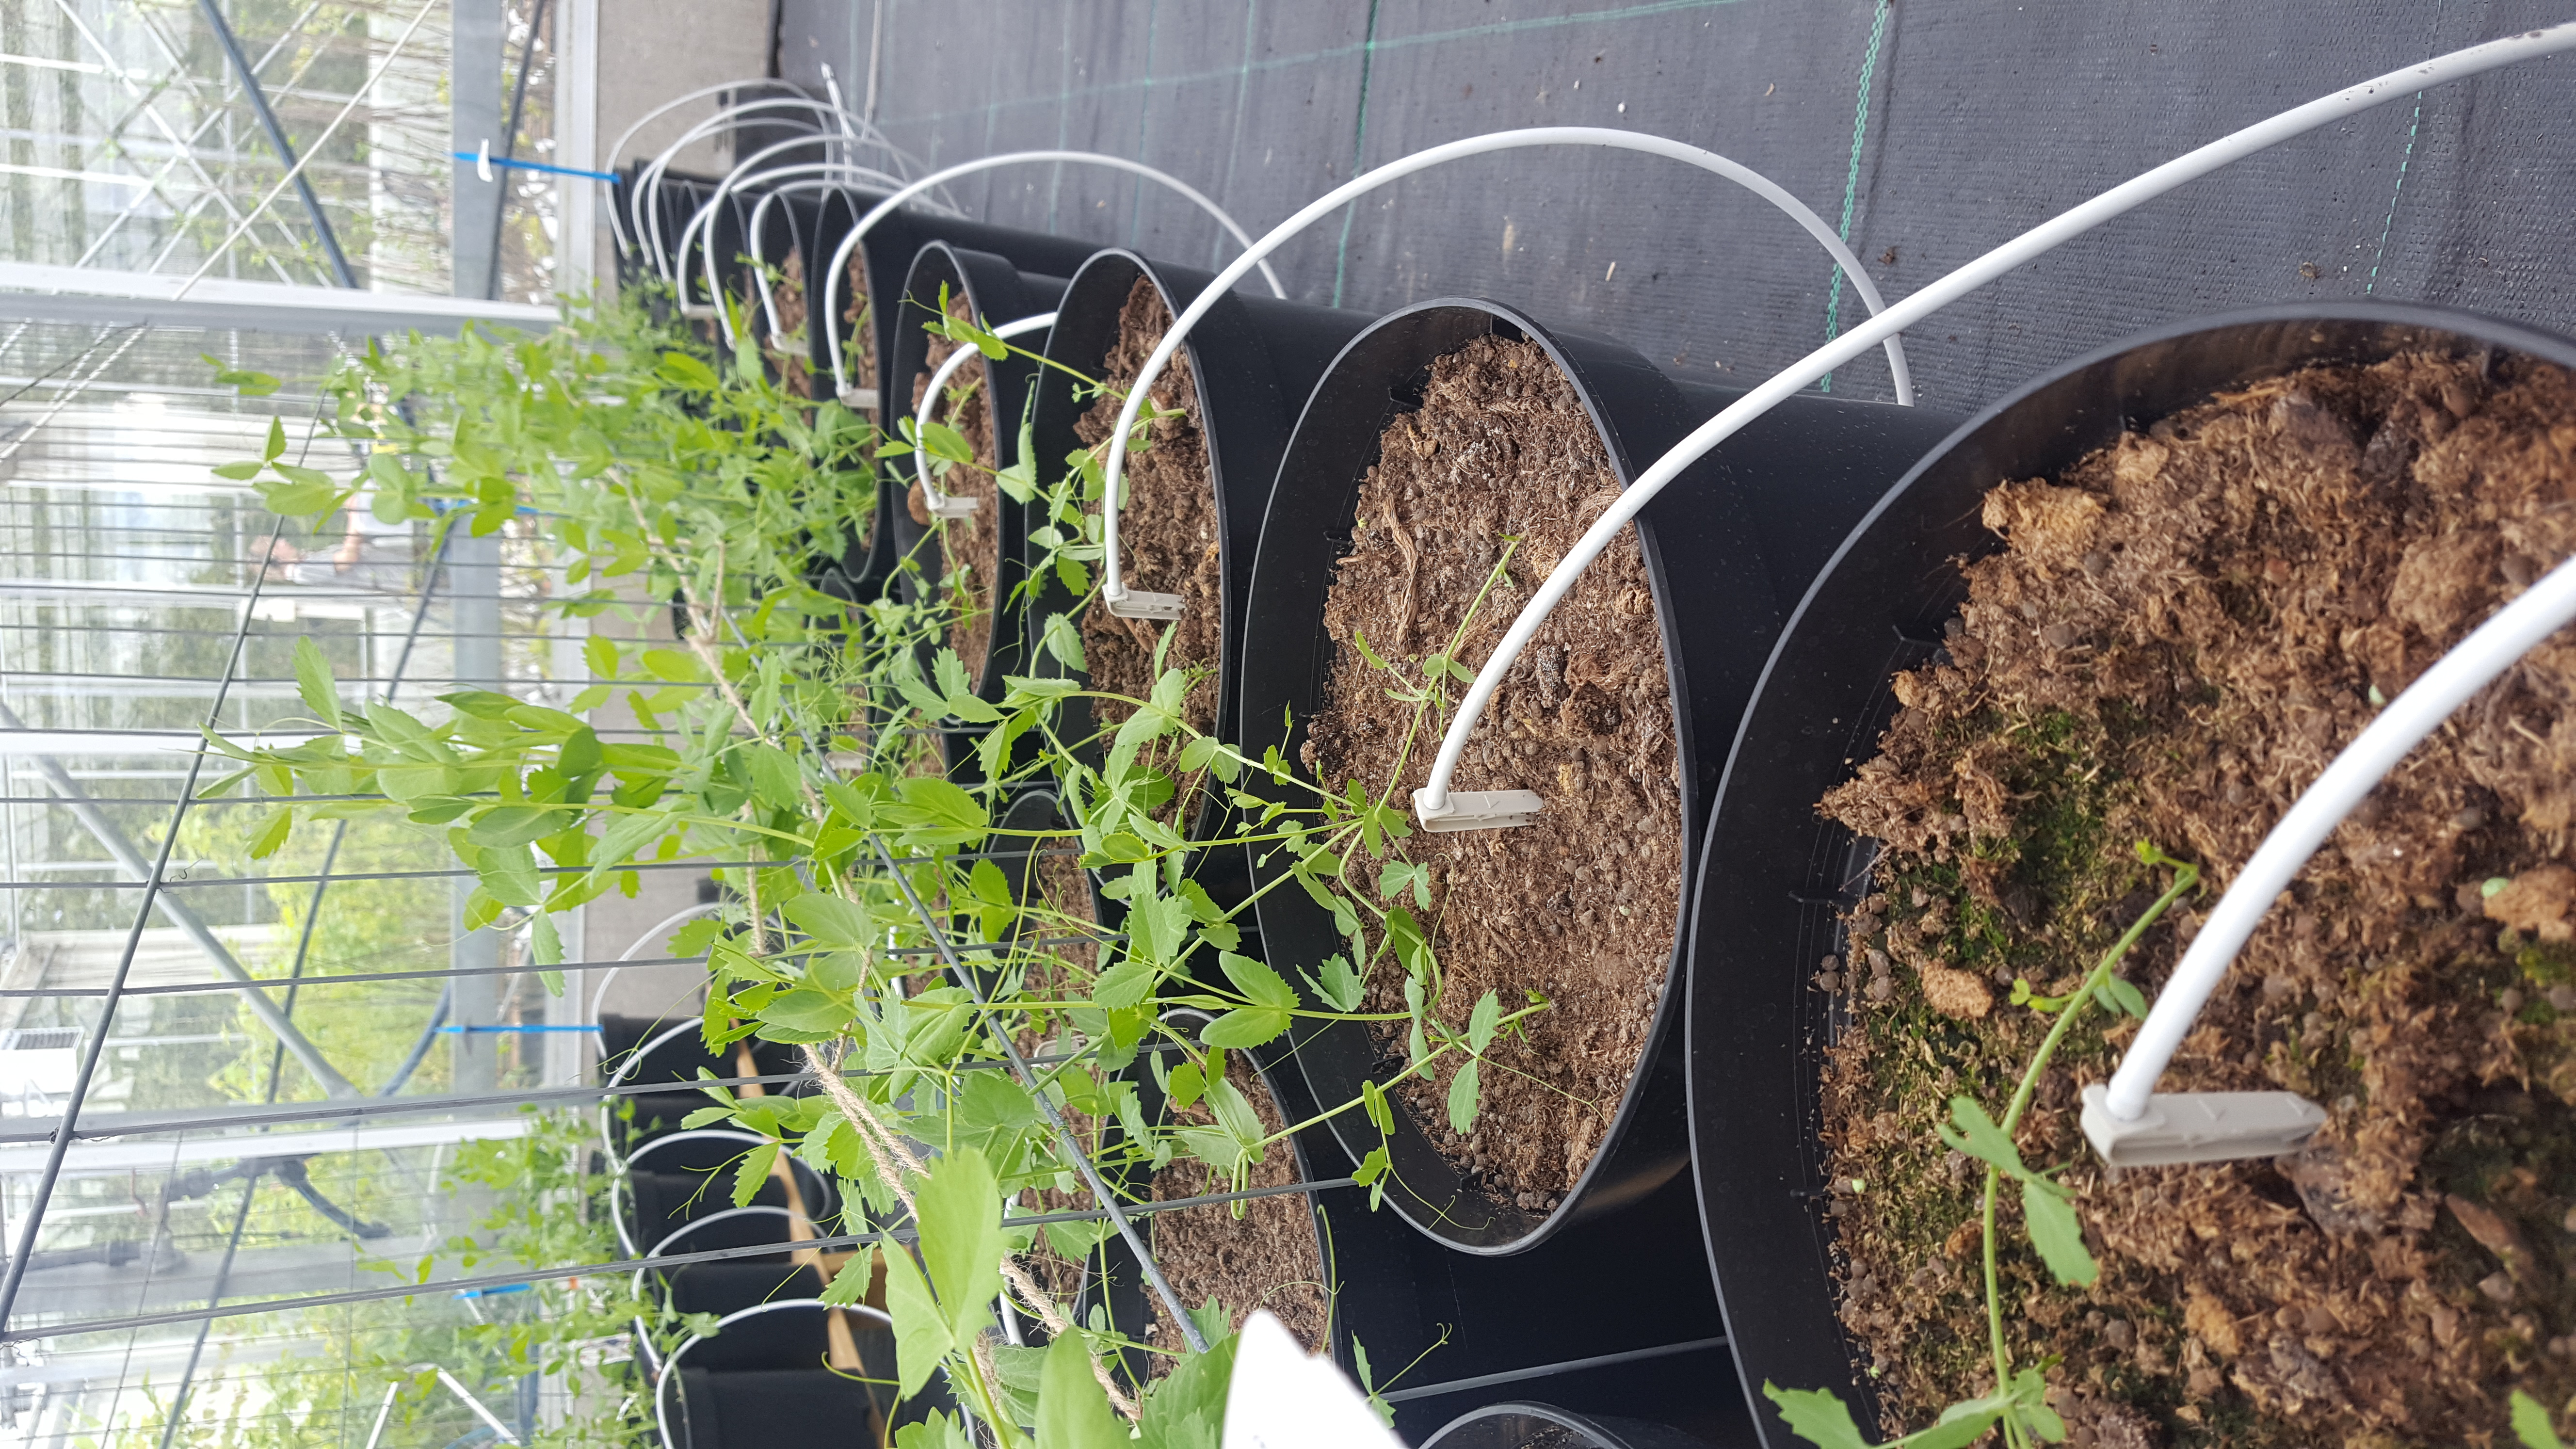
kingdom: Plantae
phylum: Tracheophyta
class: Magnoliopsida
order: Fabales
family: Fabaceae
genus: Lathyrus
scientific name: Lathyrus oleraceus
